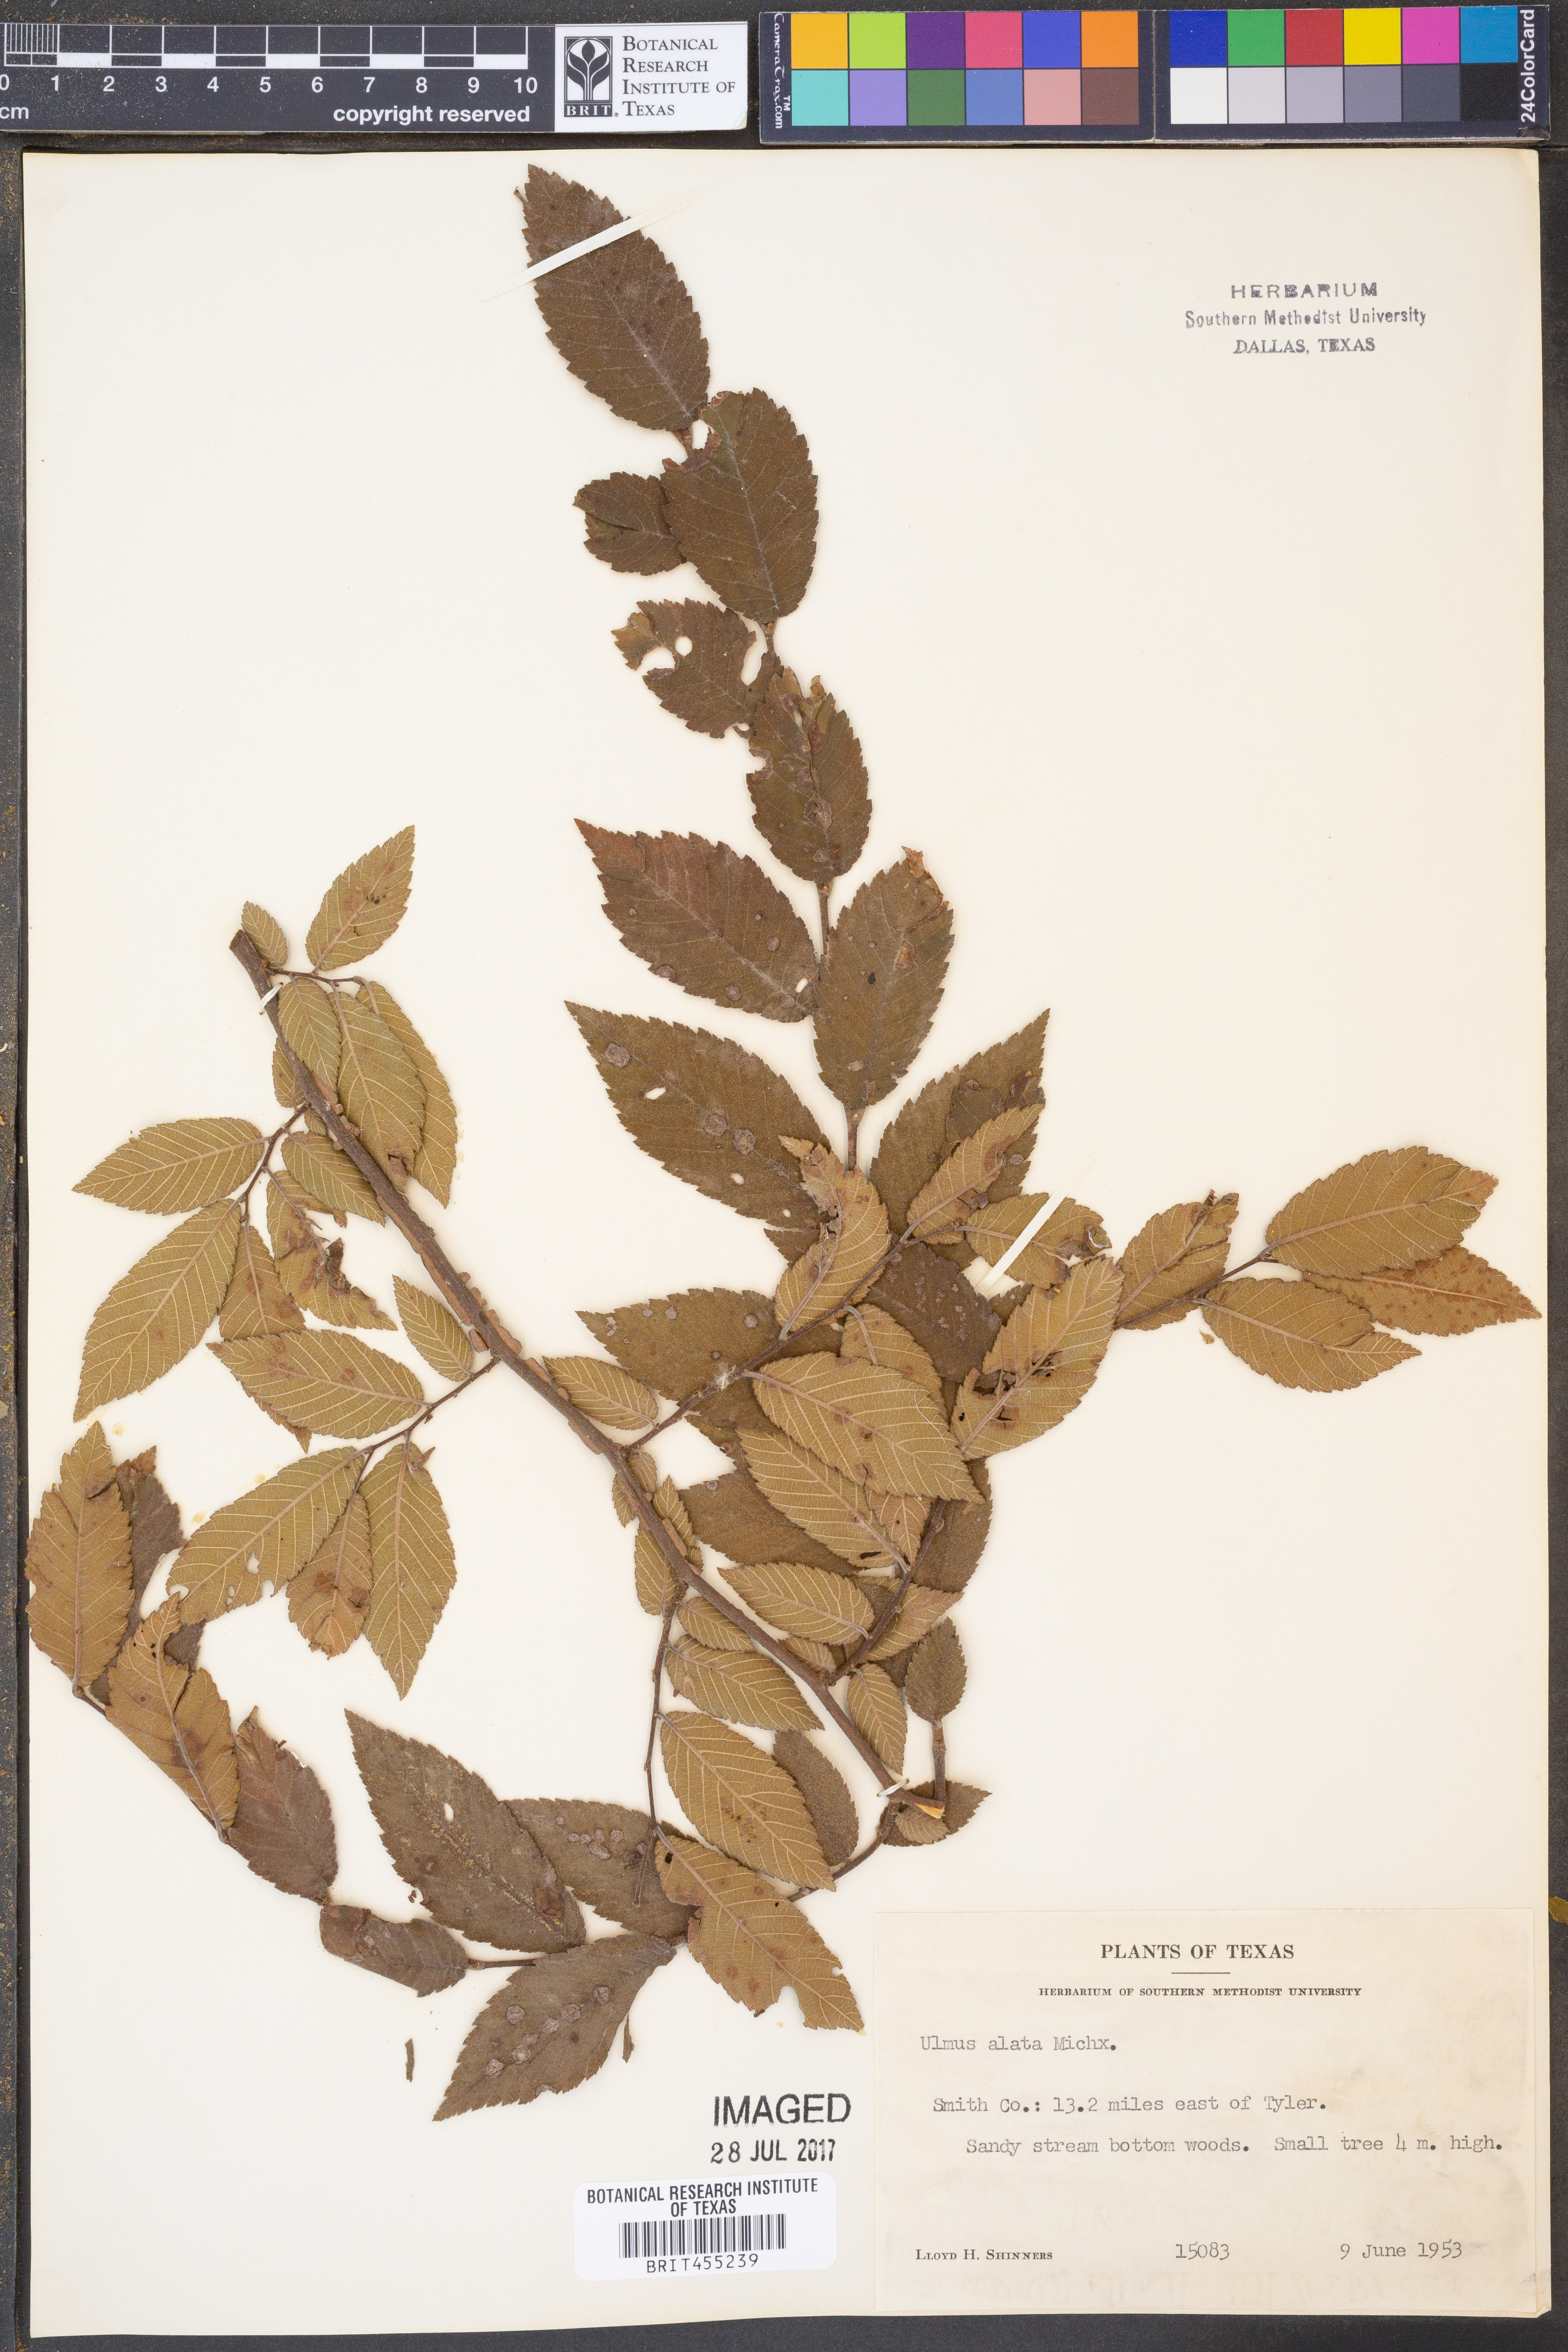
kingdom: Plantae
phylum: Tracheophyta
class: Magnoliopsida
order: Rosales
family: Ulmaceae
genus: Ulmus
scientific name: Ulmus alata
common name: Winged elm
